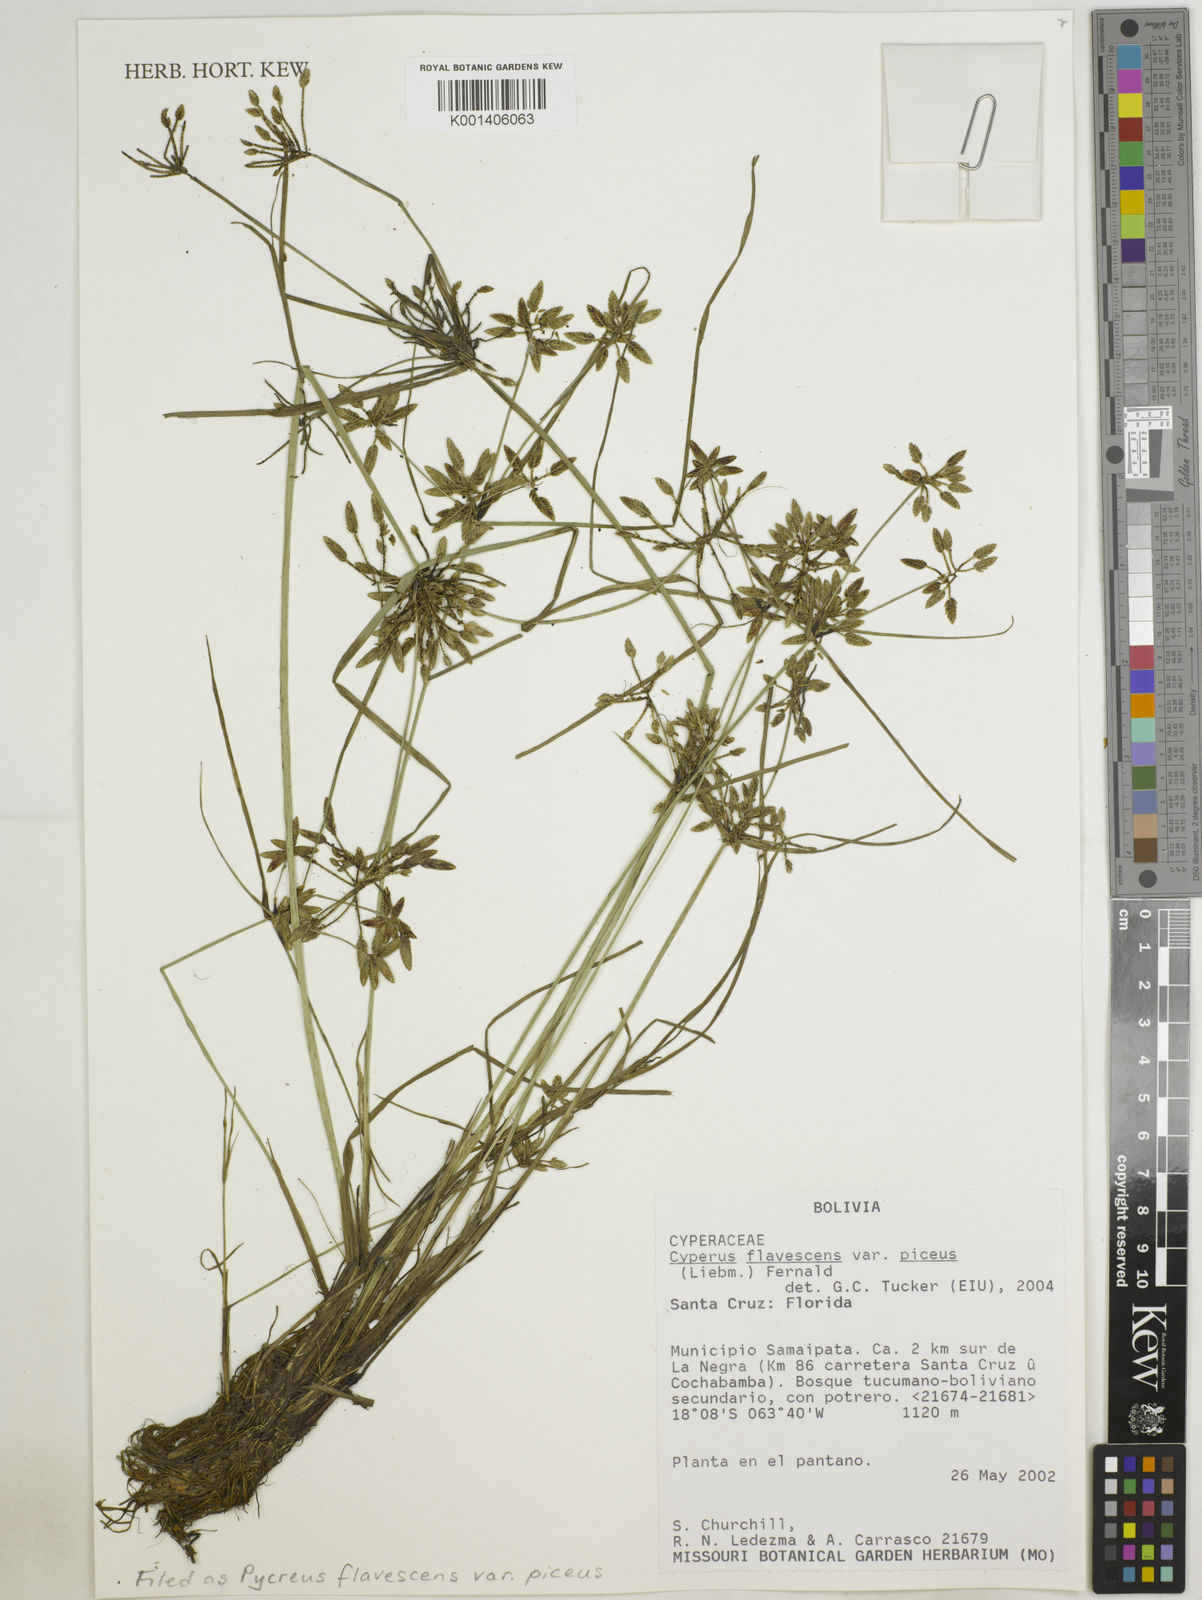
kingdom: Plantae
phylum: Tracheophyta
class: Liliopsida
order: Poales
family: Cyperaceae
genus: Cyperus
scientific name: Cyperus flavescens
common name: Yellow galingale
